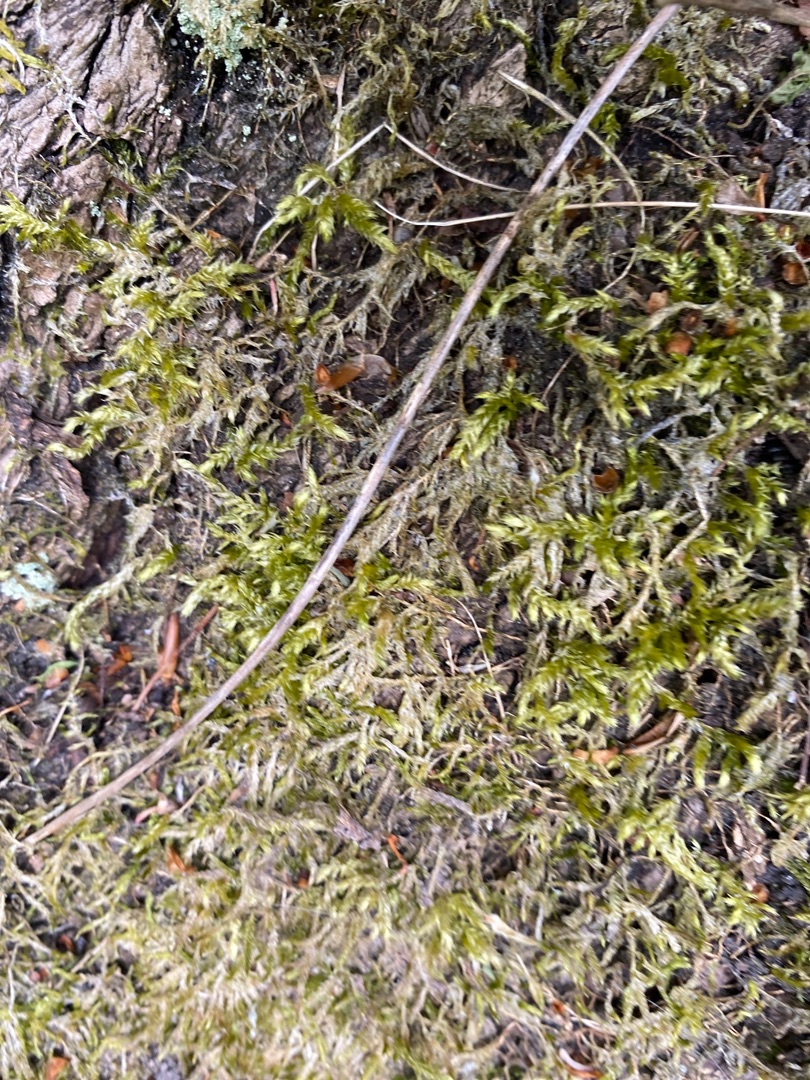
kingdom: Plantae
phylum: Bryophyta
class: Bryopsida
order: Hypnales
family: Brachytheciaceae
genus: Brachythecium
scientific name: Brachythecium rutabulum
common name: Almindelig kortkapsel
